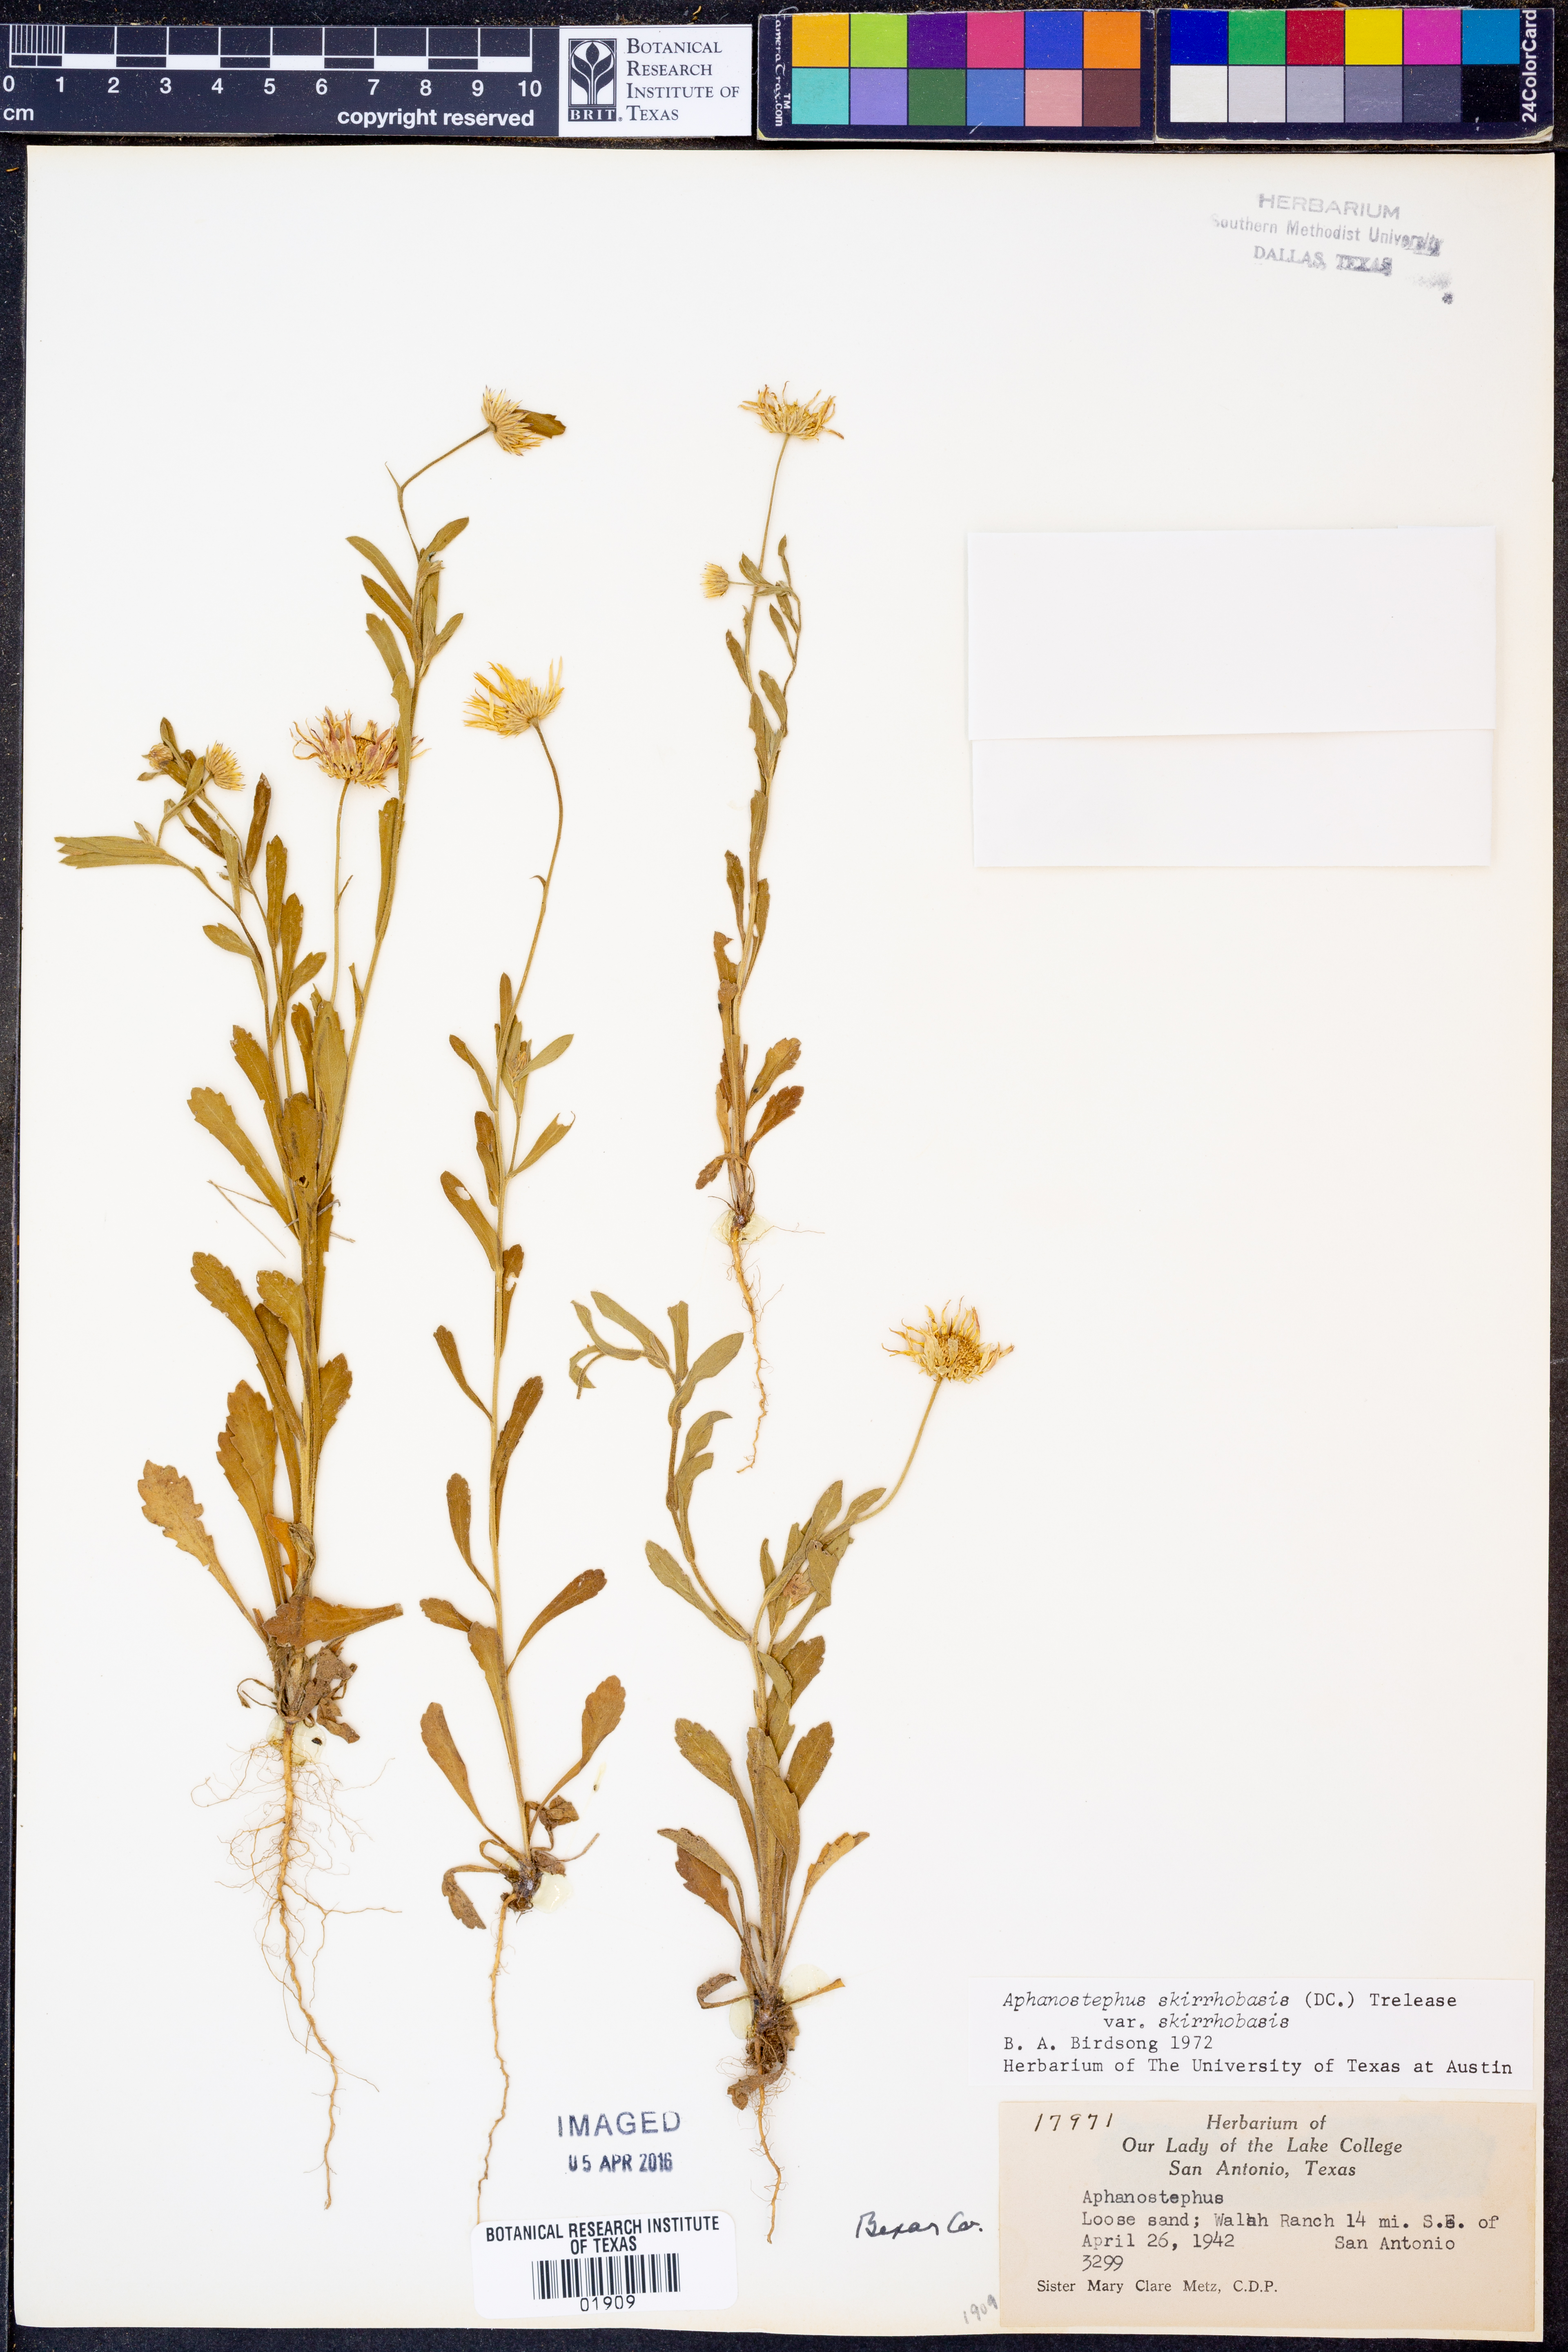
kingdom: Plantae
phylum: Tracheophyta
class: Magnoliopsida
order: Asterales
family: Asteraceae
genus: Aphanostephus
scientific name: Aphanostephus skirrhobasis
